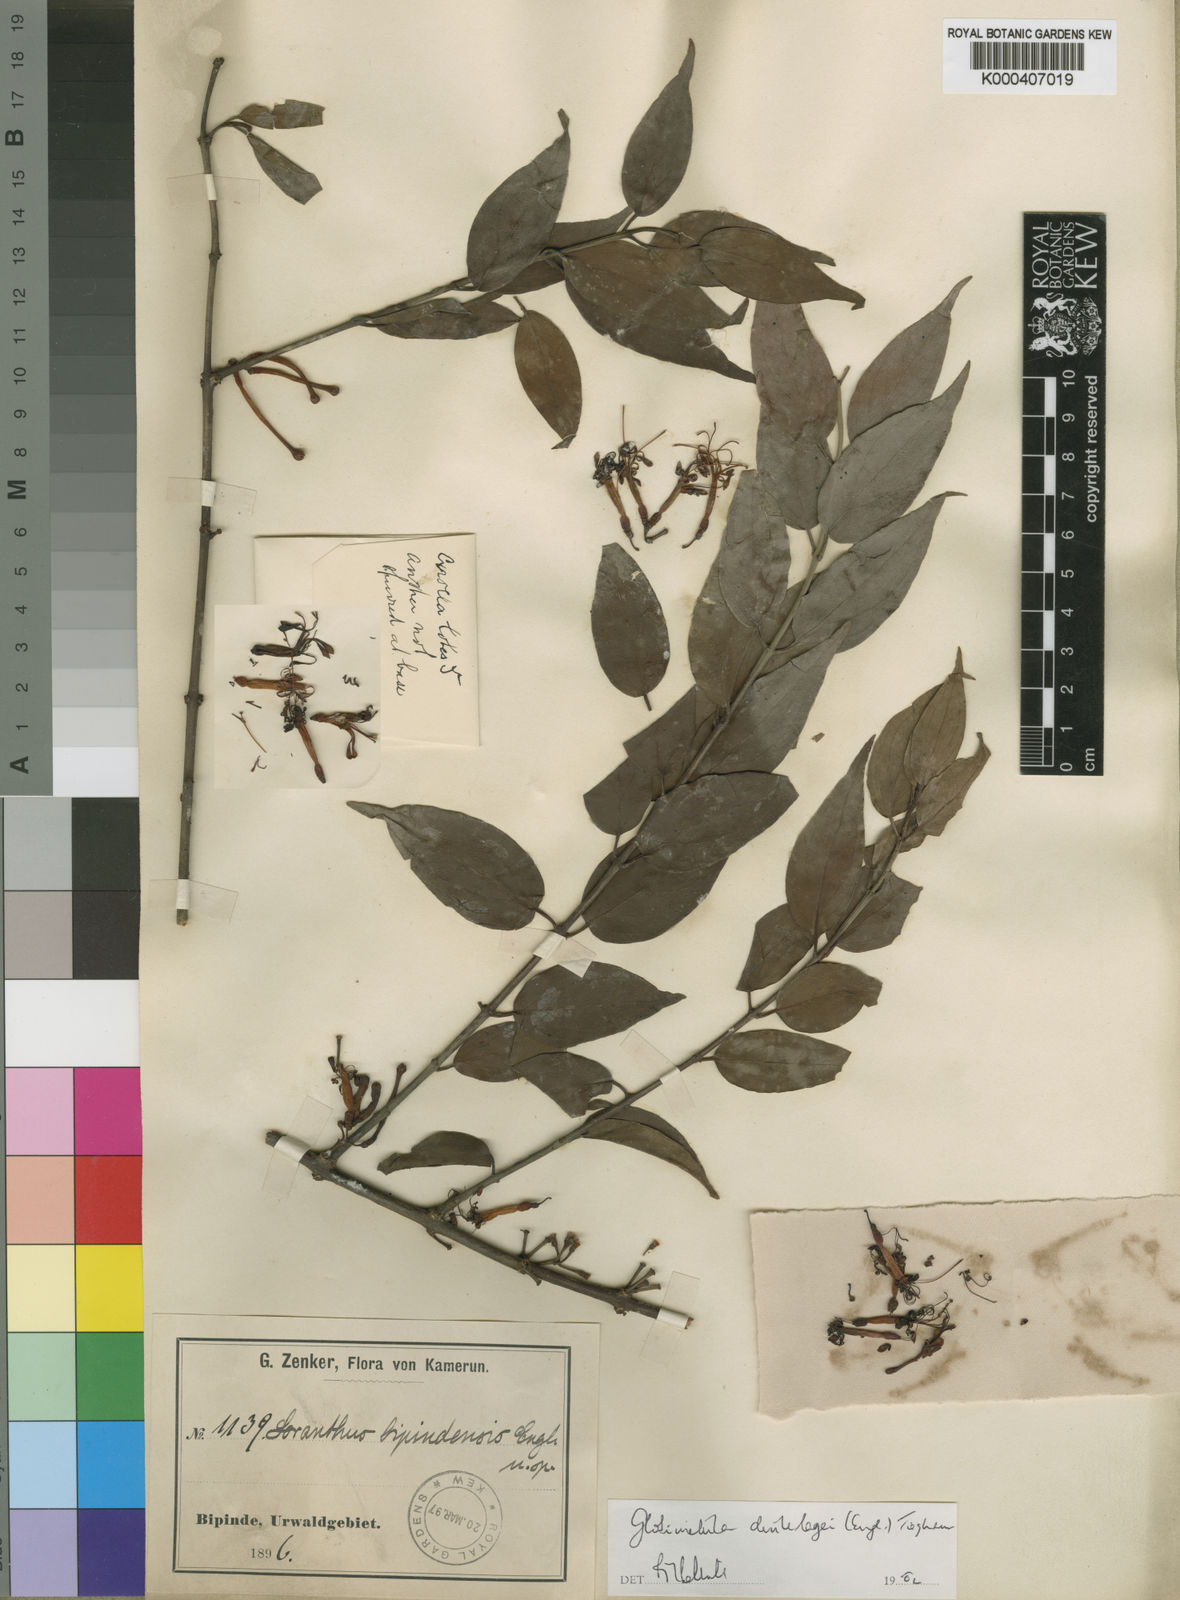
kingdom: Plantae
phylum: Tracheophyta
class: Magnoliopsida
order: Santalales
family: Loranthaceae
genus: Globimetula
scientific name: Globimetula dinklagei
